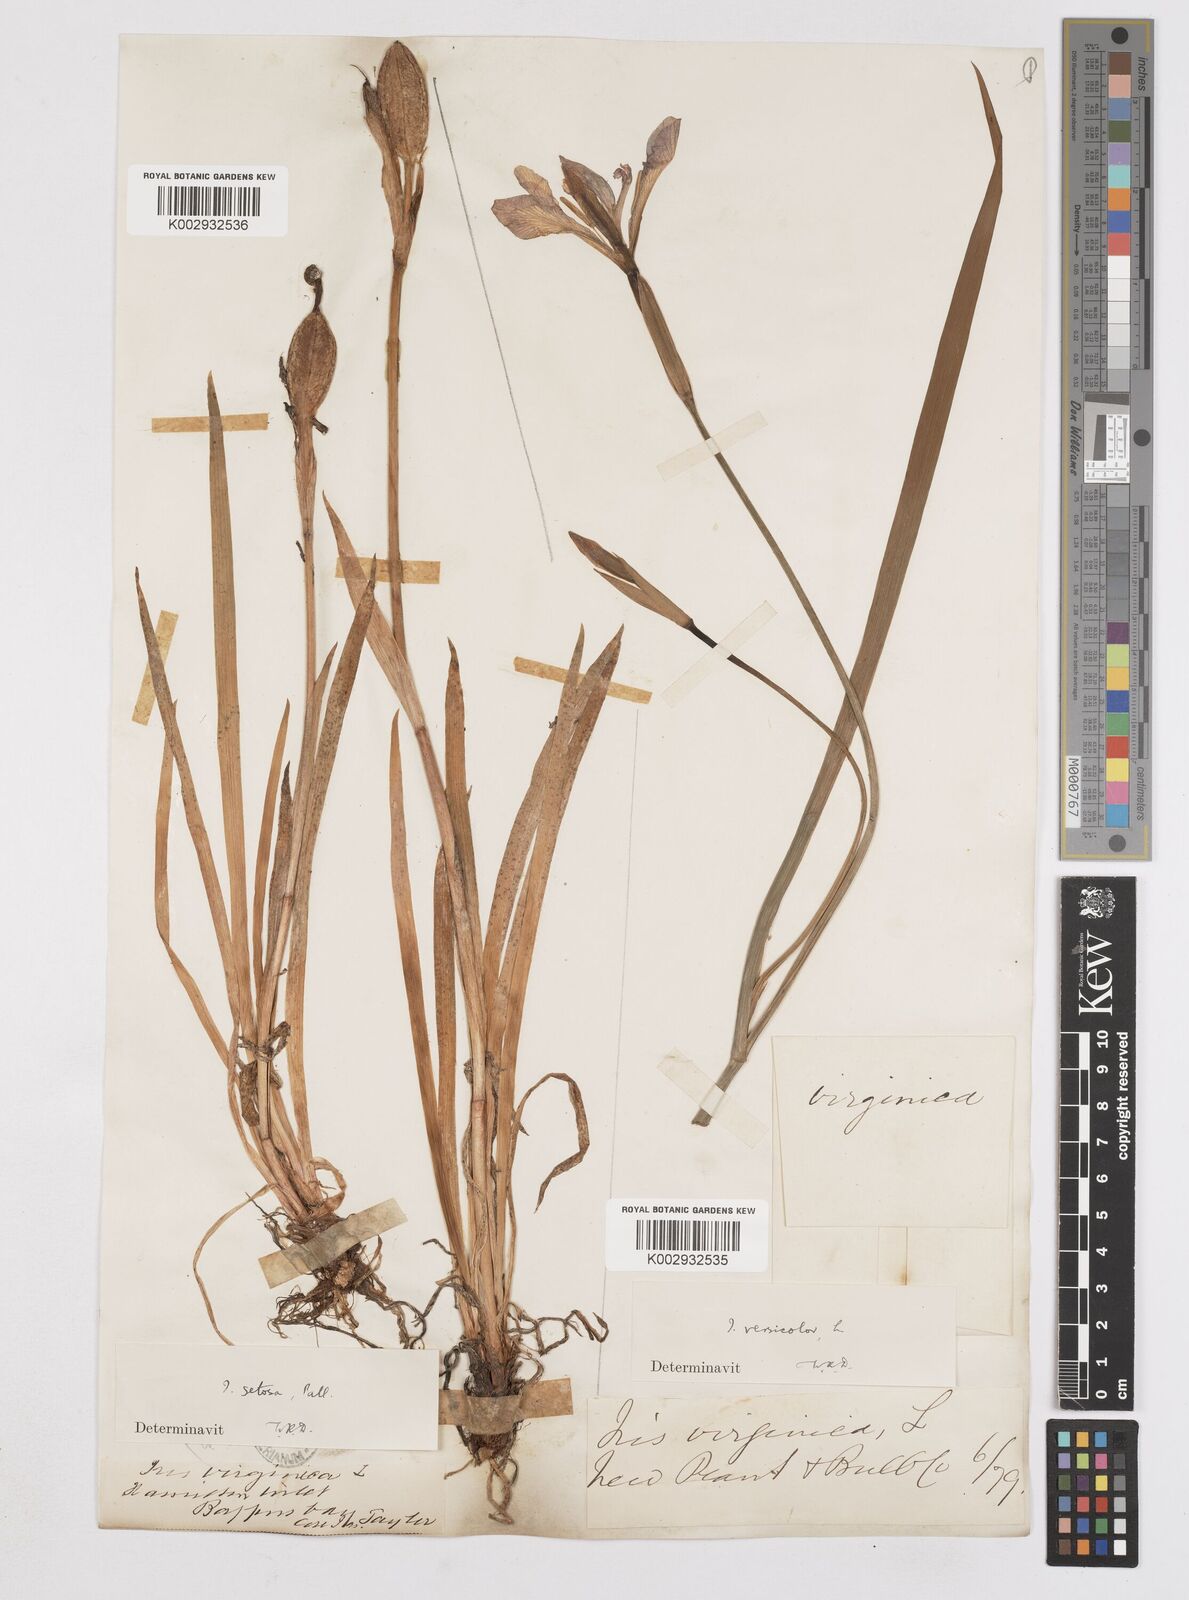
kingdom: Plantae
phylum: Tracheophyta
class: Liliopsida
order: Asparagales
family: Iridaceae
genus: Iris
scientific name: Iris versicolor
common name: Purple iris
